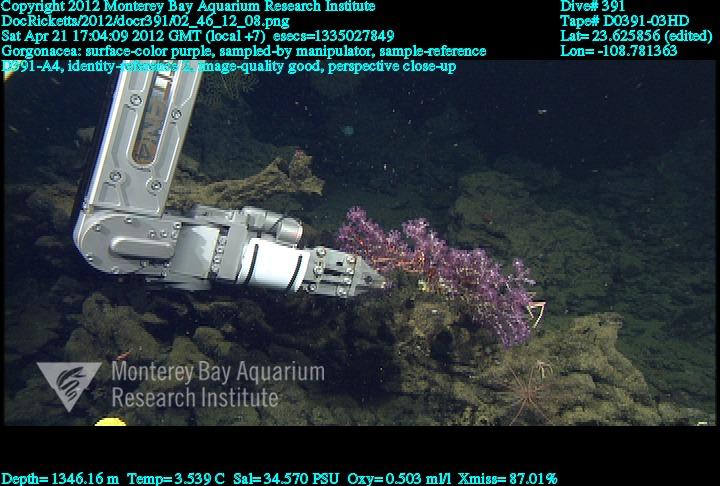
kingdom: Animalia
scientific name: Animalia
